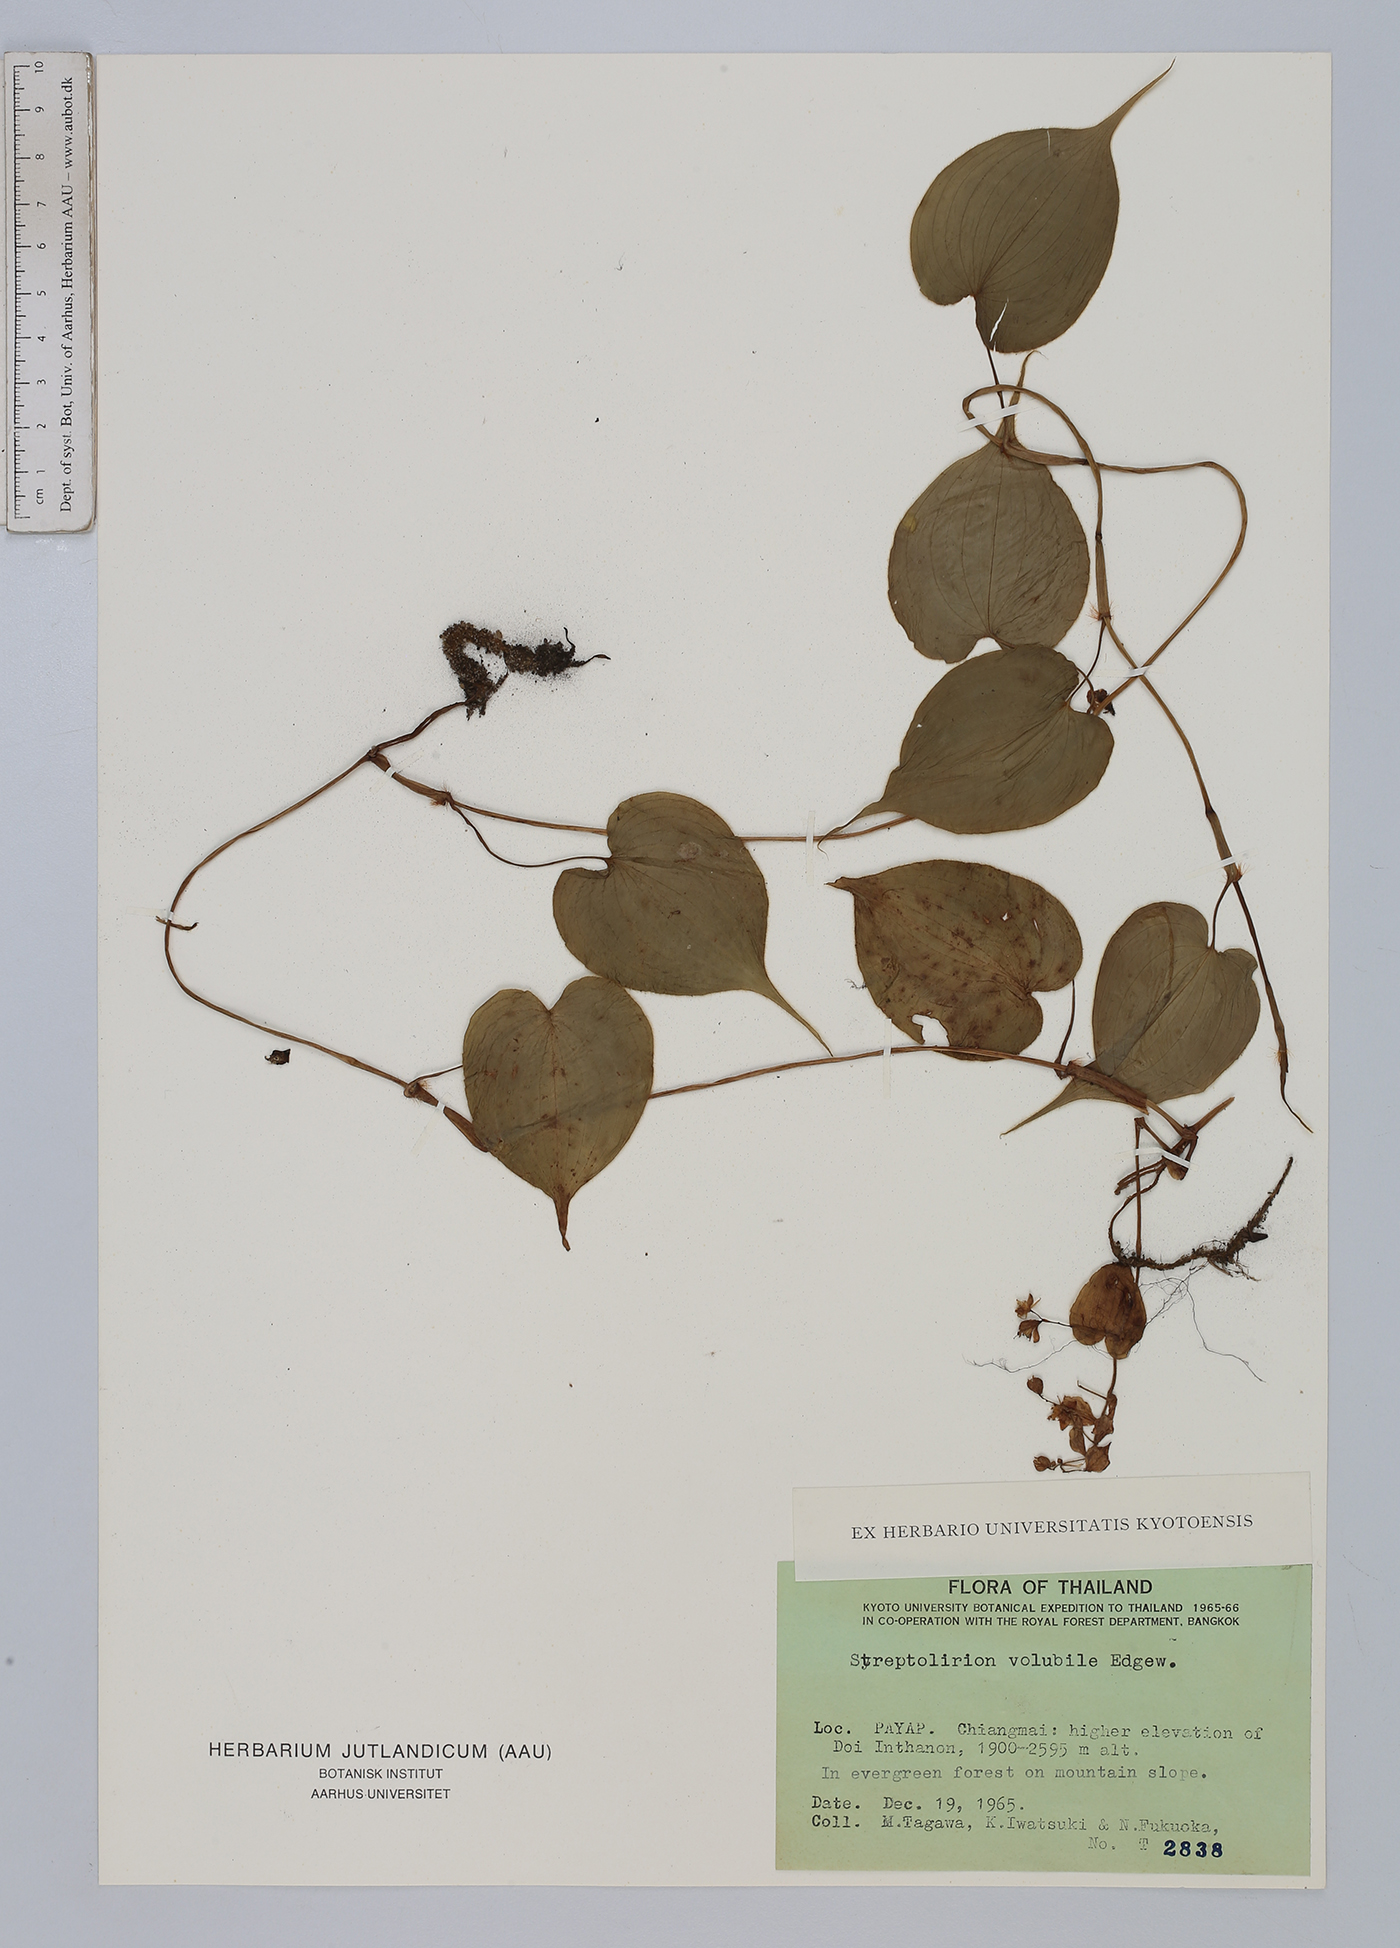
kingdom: Plantae
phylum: Tracheophyta
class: Liliopsida
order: Commelinales
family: Commelinaceae
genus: Streptolirion
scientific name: Streptolirion volubile
